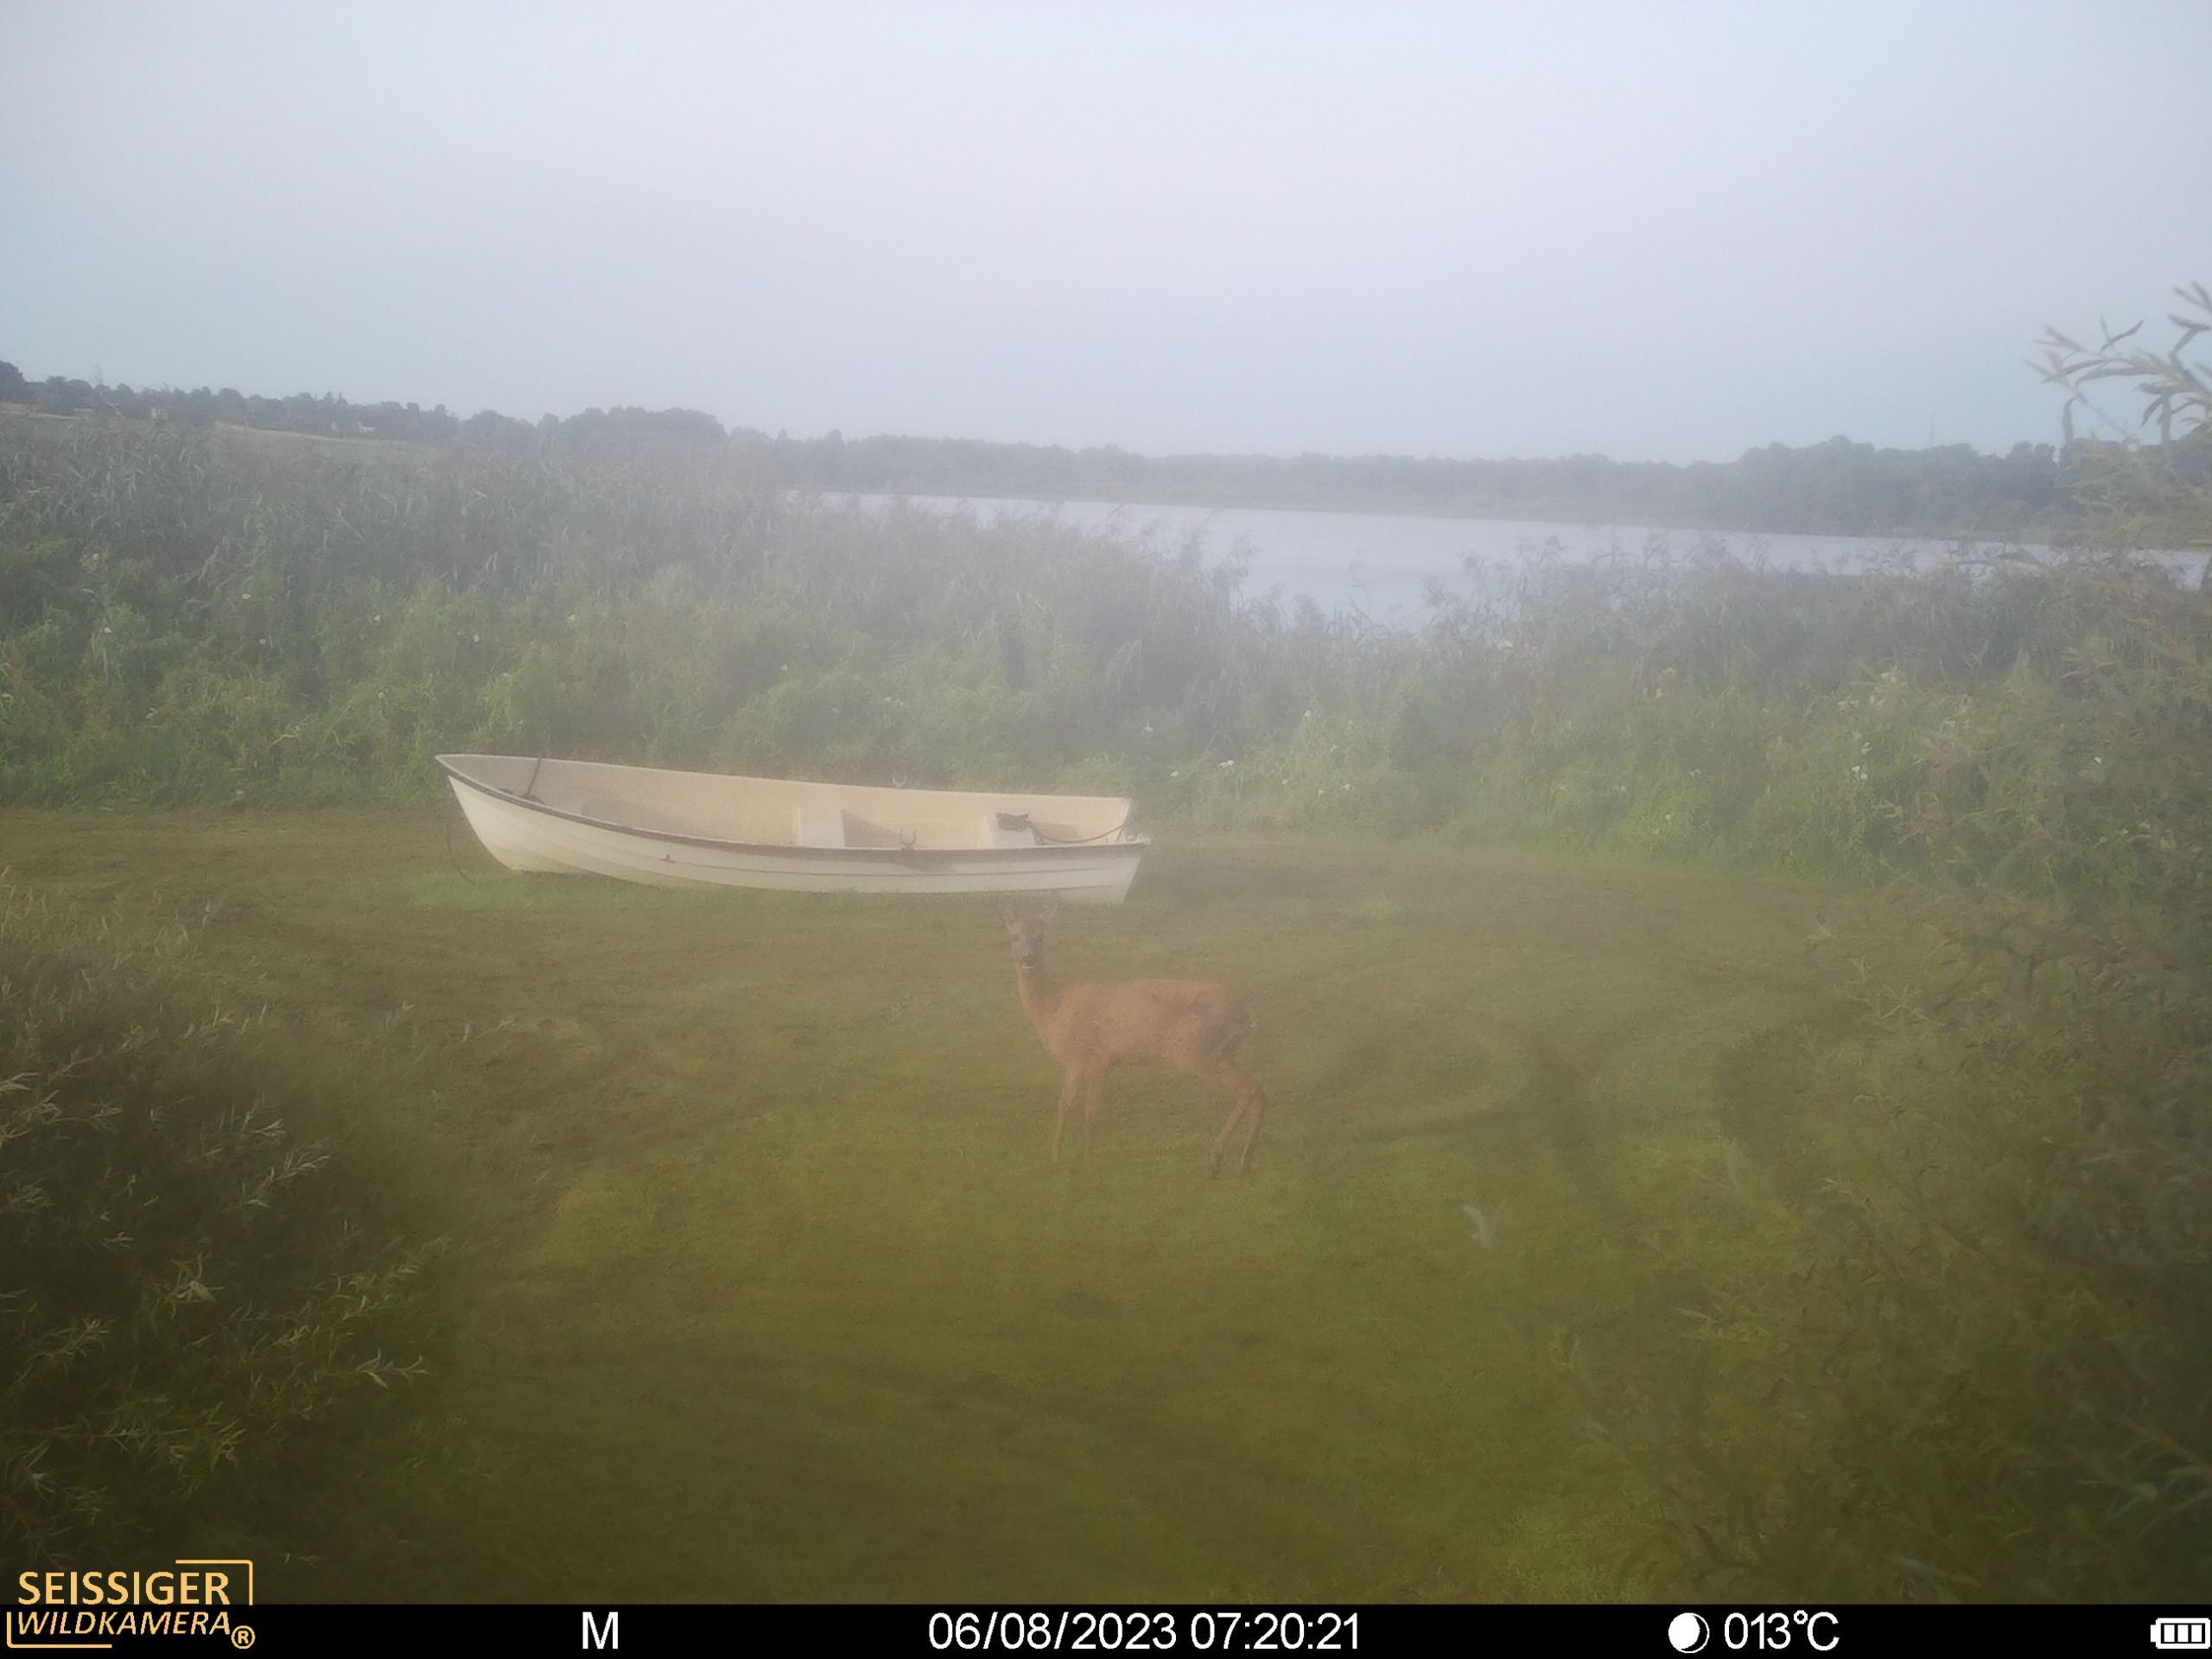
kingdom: Animalia
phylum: Chordata
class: Mammalia
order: Artiodactyla
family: Cervidae
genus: Capreolus
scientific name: Capreolus capreolus
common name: Rådyr
